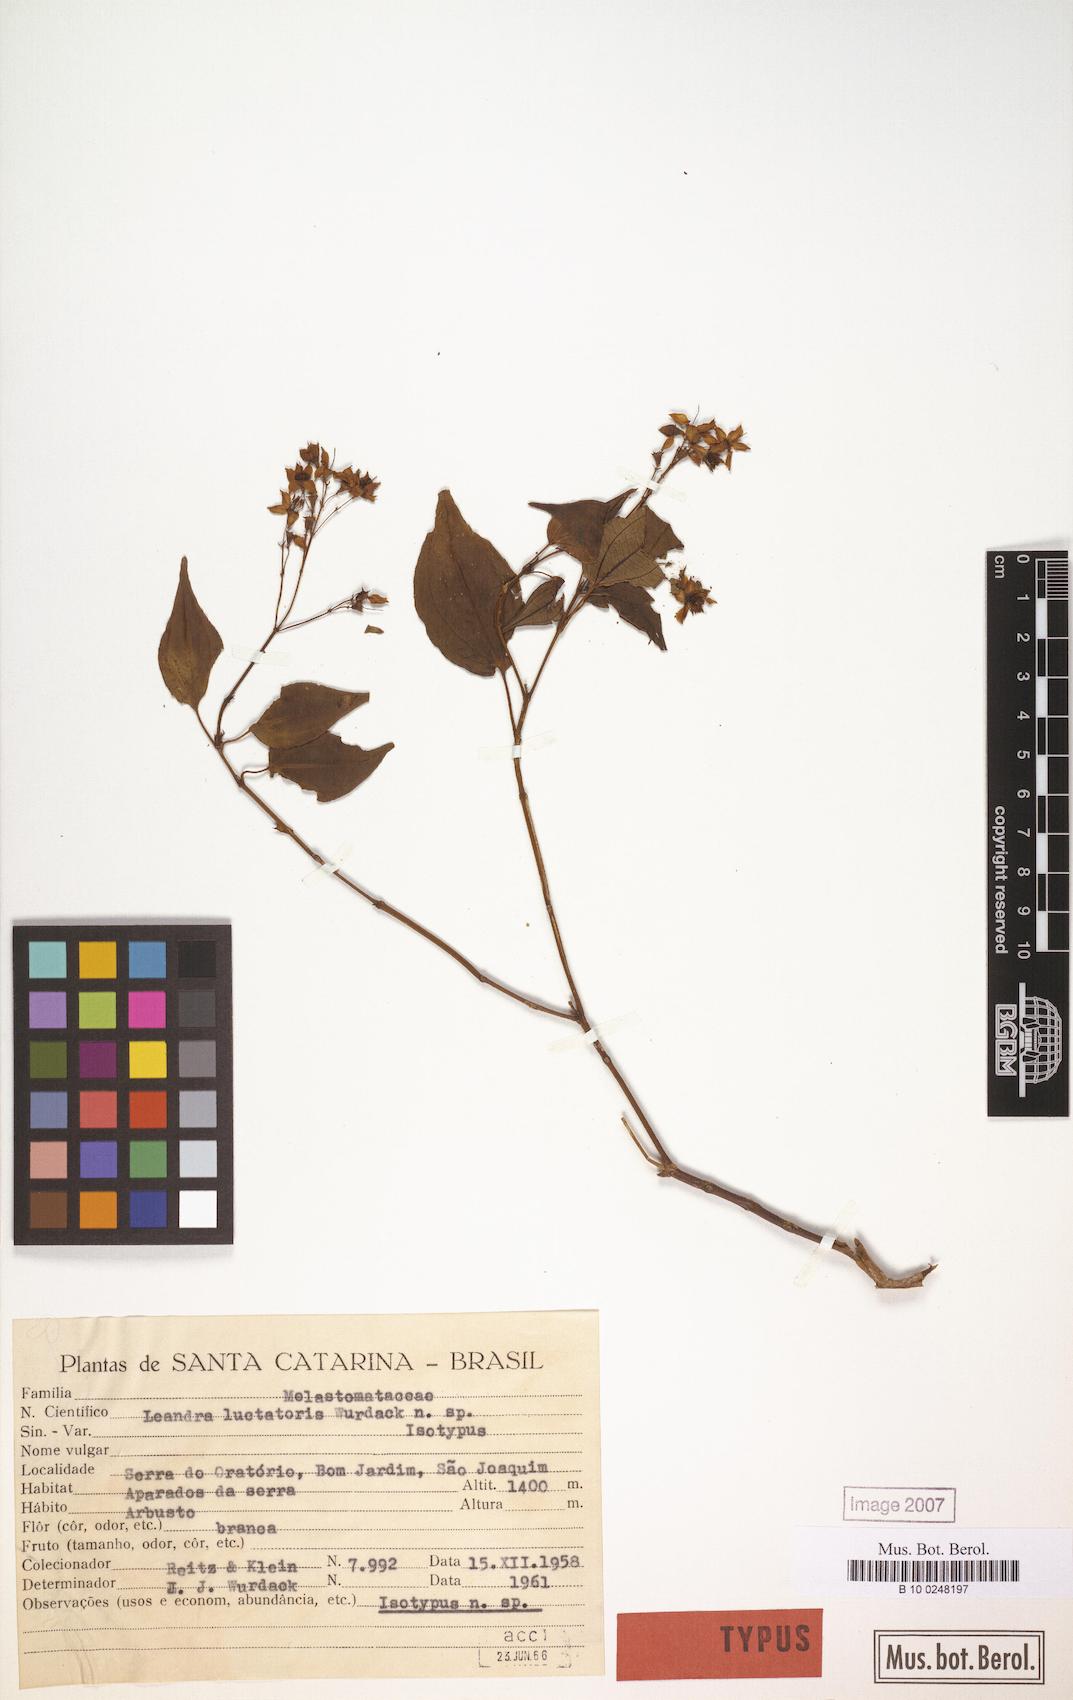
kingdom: Plantae
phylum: Tracheophyta
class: Magnoliopsida
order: Myrtales
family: Melastomataceae
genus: Miconia
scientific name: Miconia luctatoris
